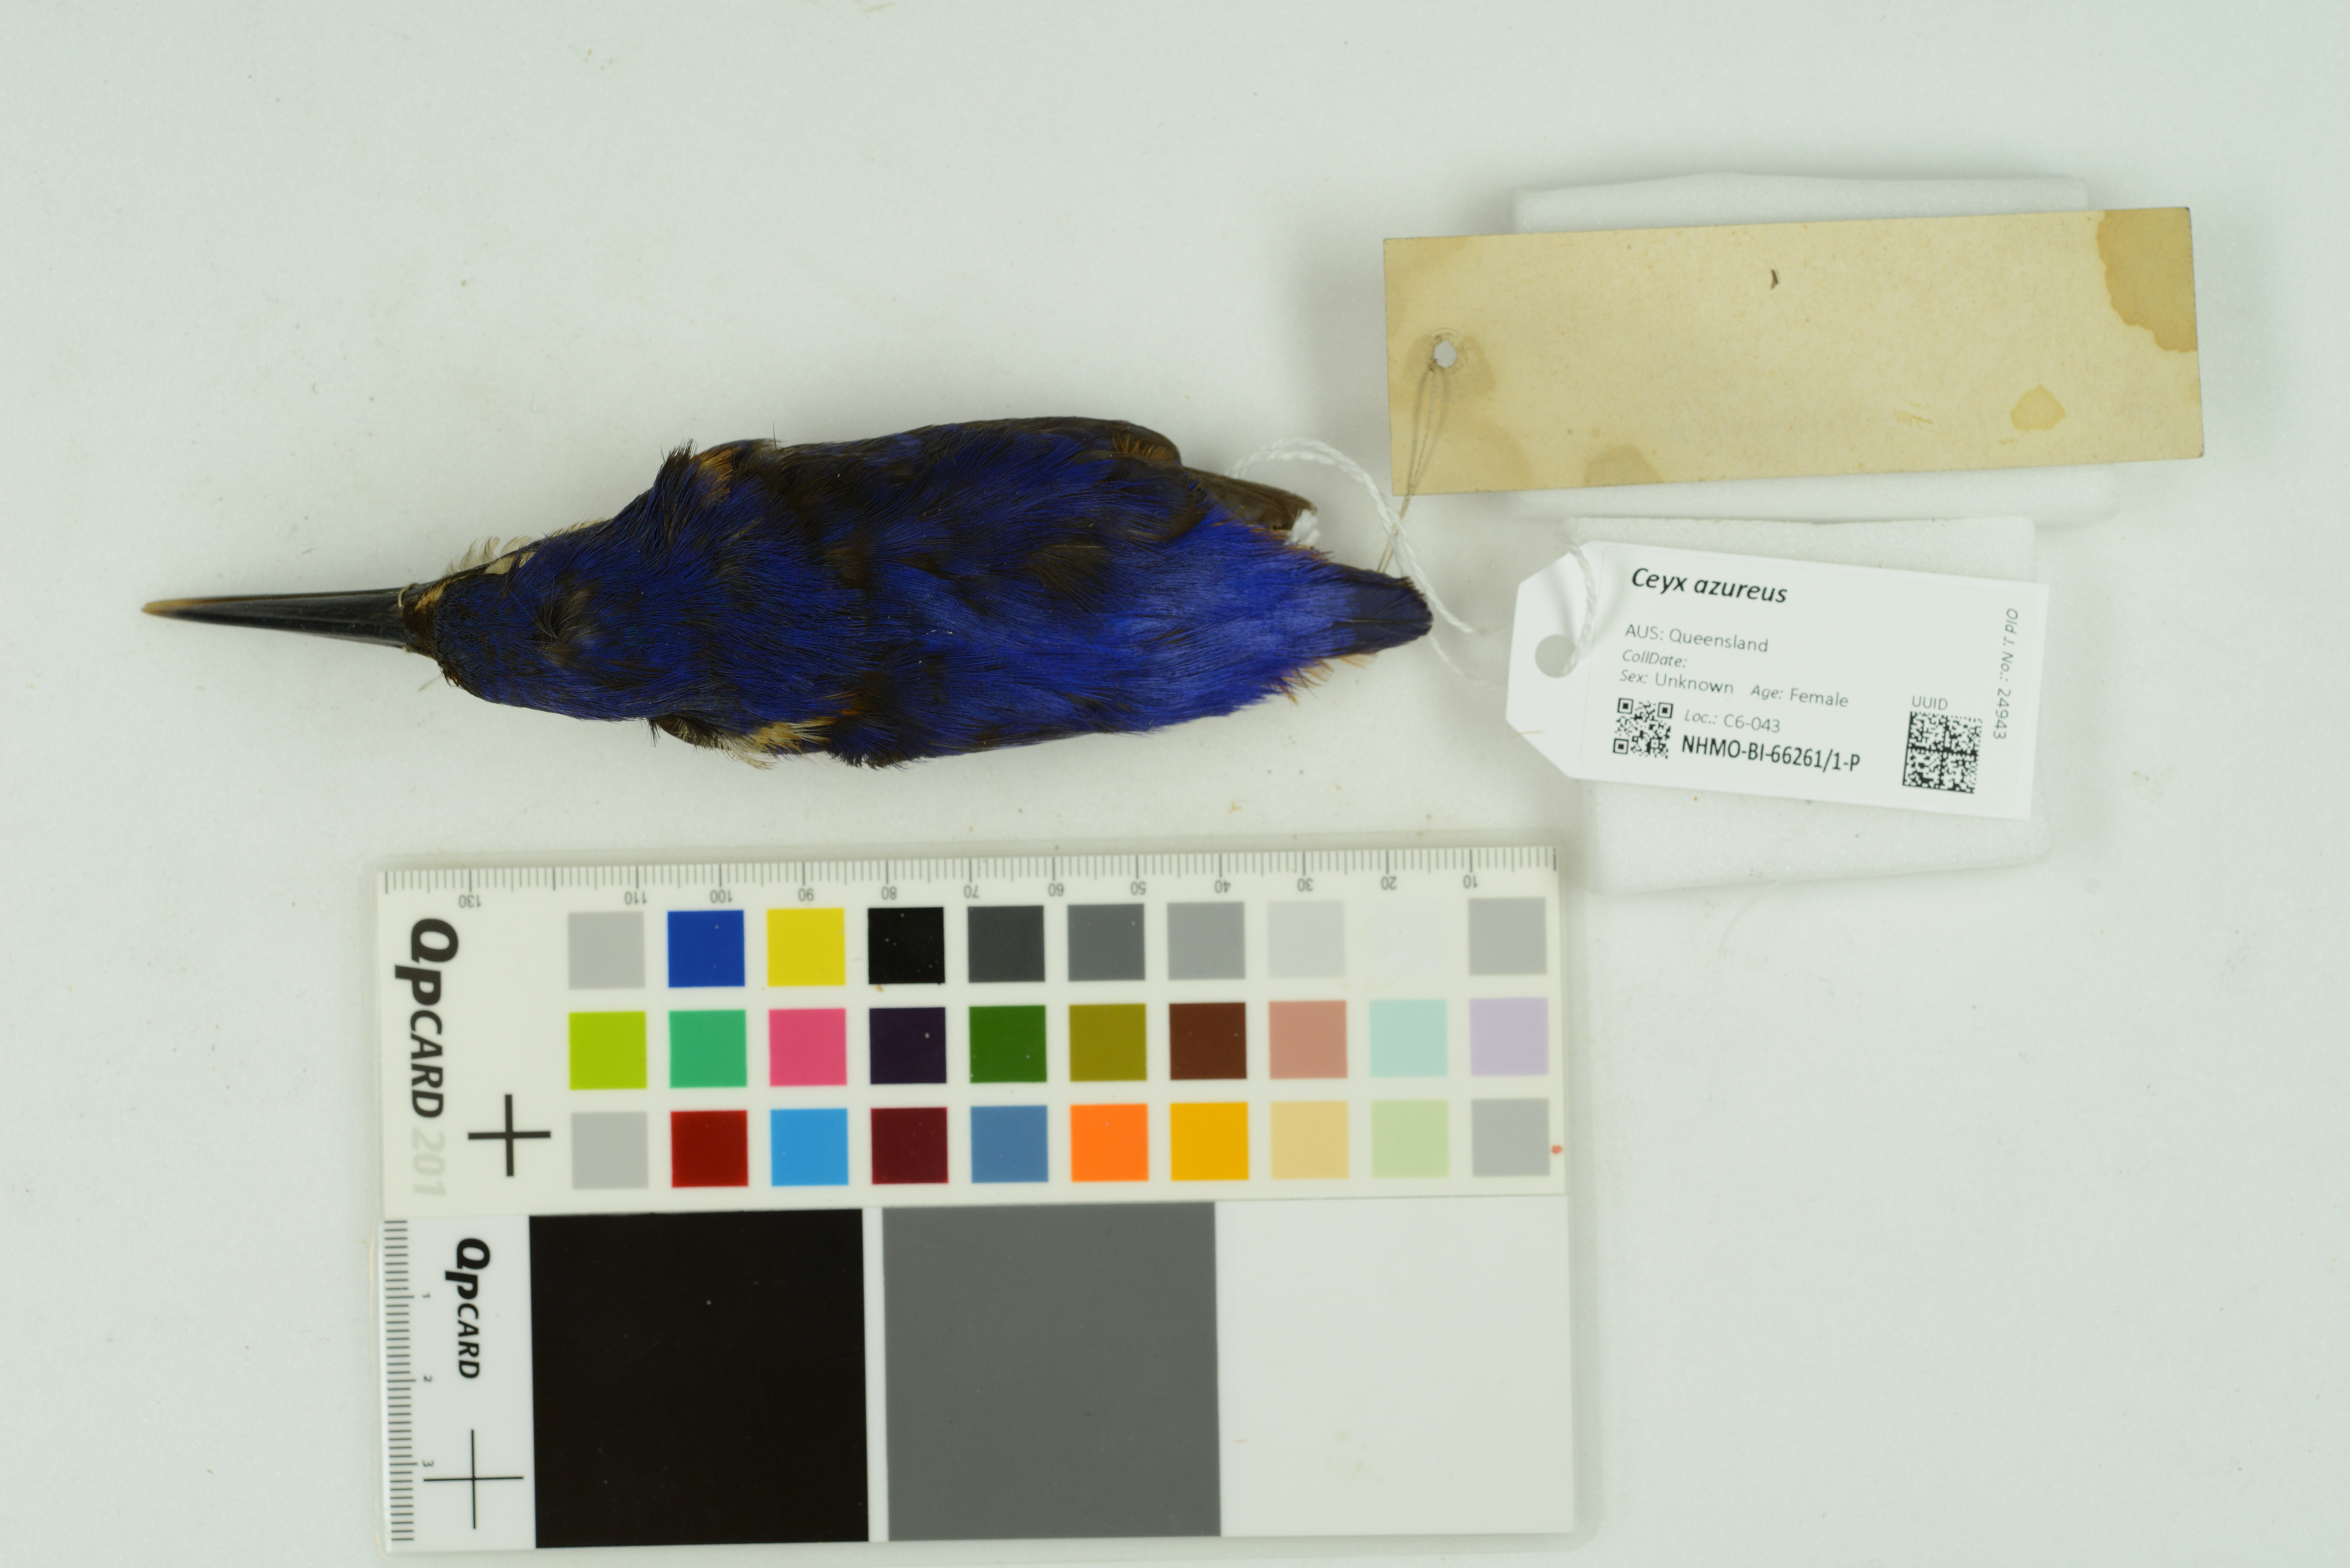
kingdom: Animalia
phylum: Chordata
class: Aves
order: Coraciiformes
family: Alcedinidae
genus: Ceyx
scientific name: Ceyx azureus
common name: Azure kingfisher
